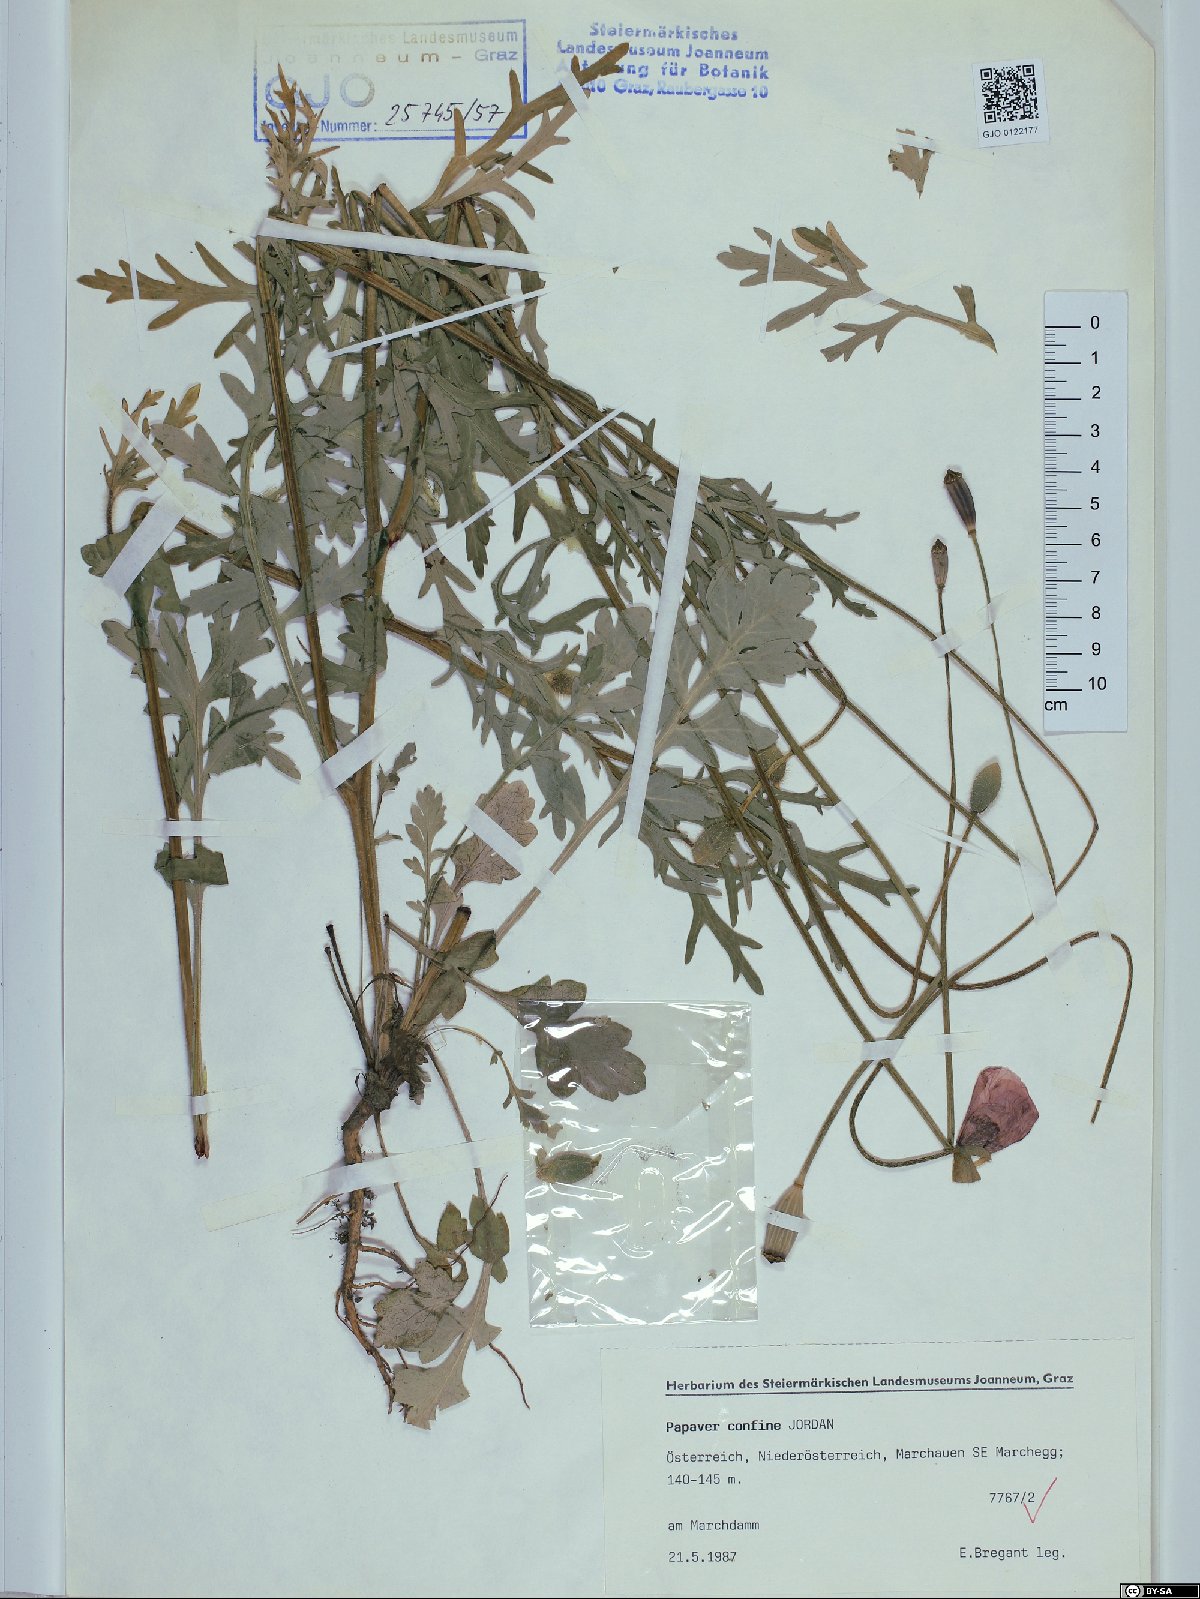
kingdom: Plantae
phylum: Tracheophyta
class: Magnoliopsida
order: Ranunculales
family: Papaveraceae
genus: Papaver
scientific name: Papaver confine
